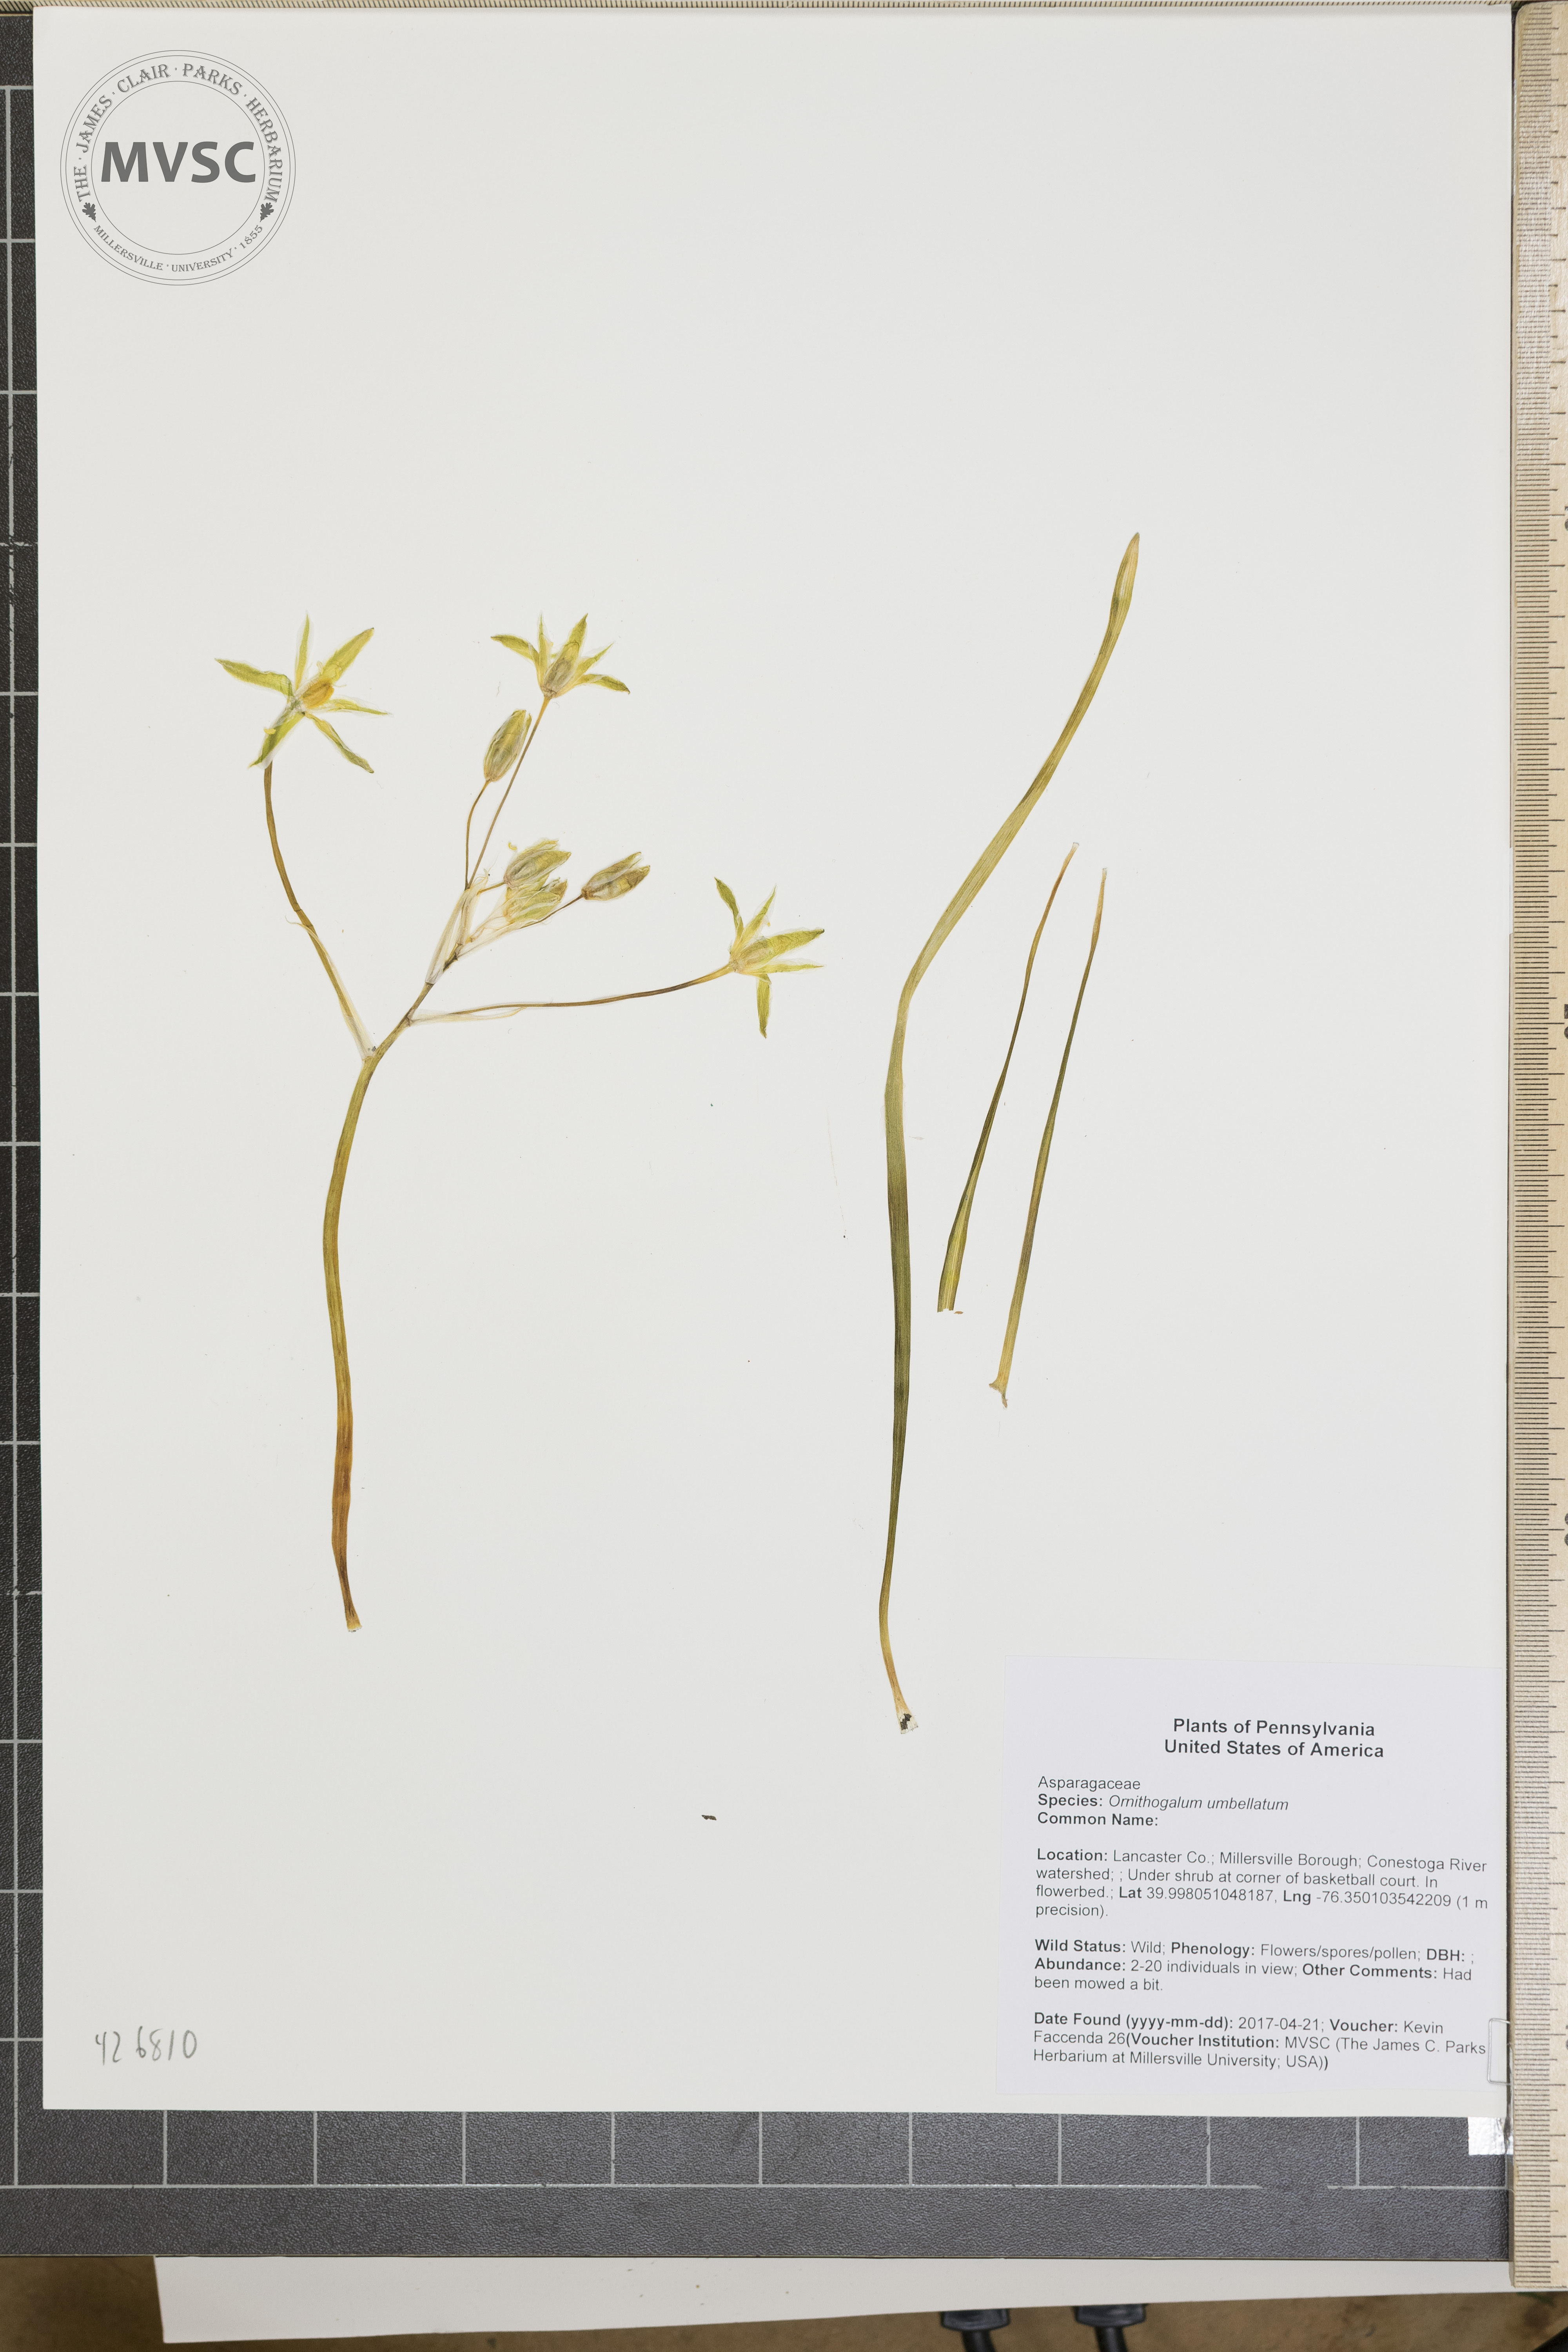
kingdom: Plantae
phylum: Tracheophyta
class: Liliopsida
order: Asparagales
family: Asparagaceae
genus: Ornithogalum
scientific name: Ornithogalum umbellatum
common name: Garden star-of-bethlehem
